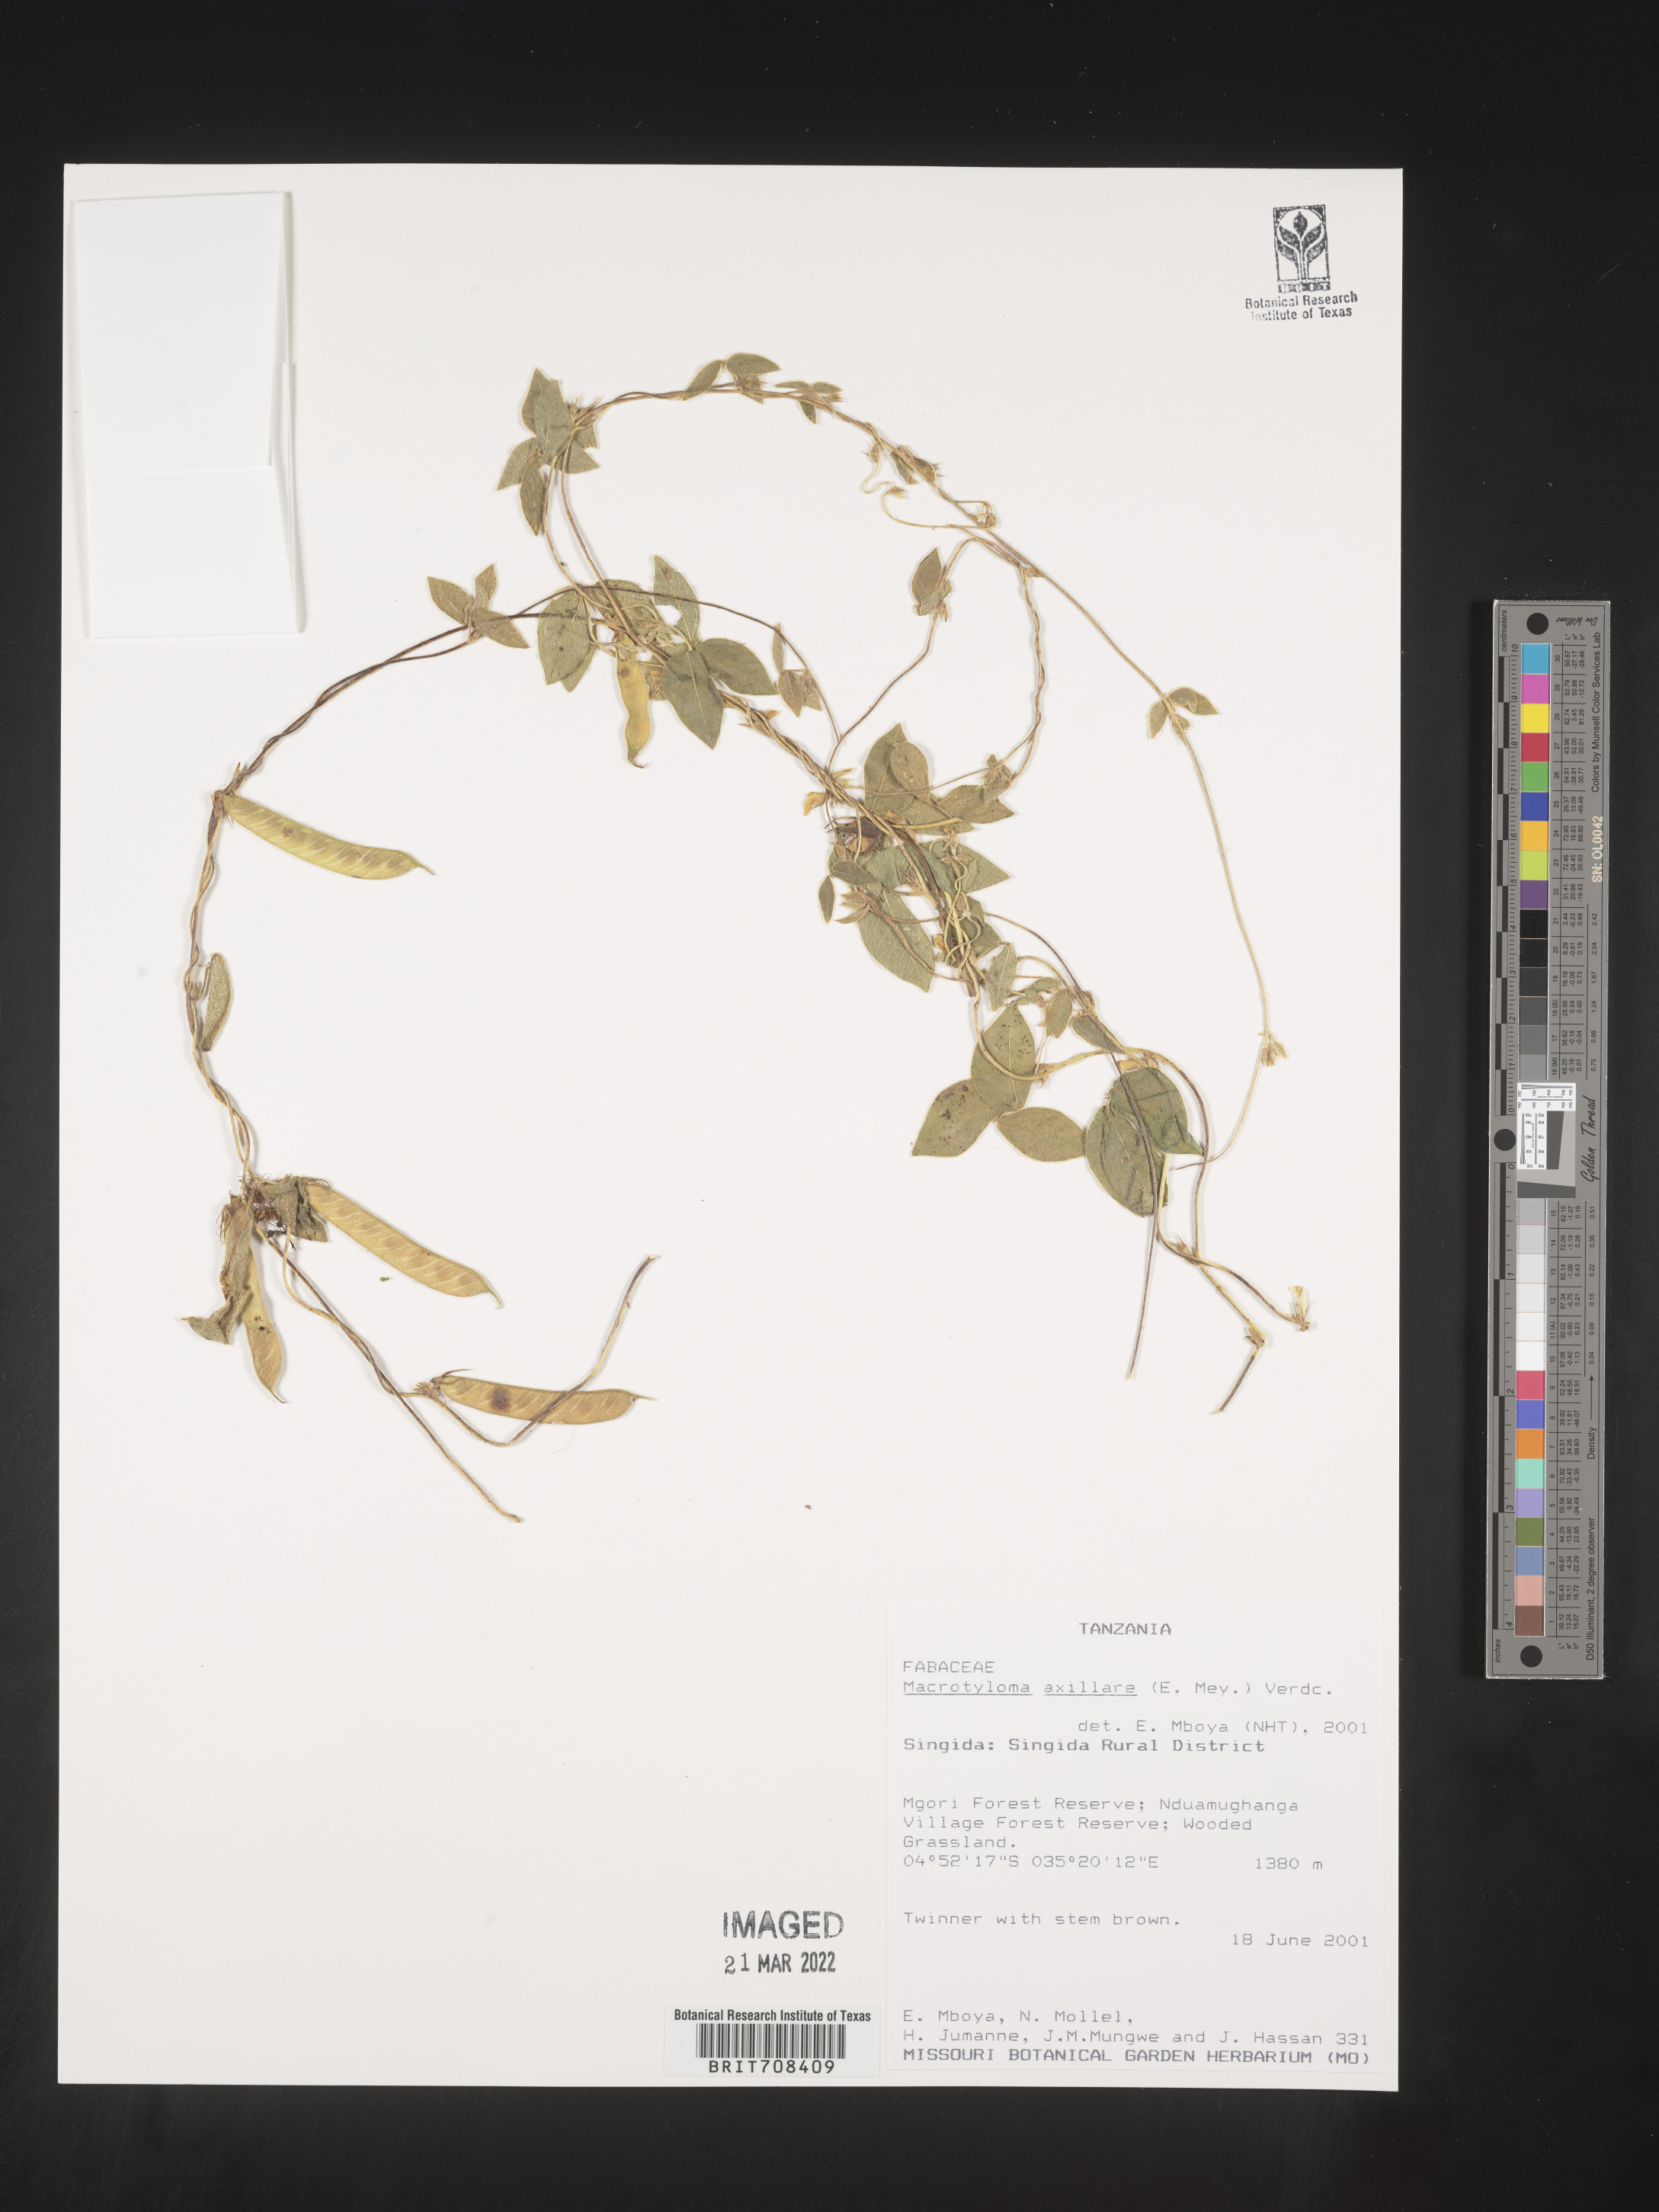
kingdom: Plantae
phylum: Tracheophyta
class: Magnoliopsida
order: Fabales
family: Fabaceae
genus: Macrotyloma
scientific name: Macrotyloma
